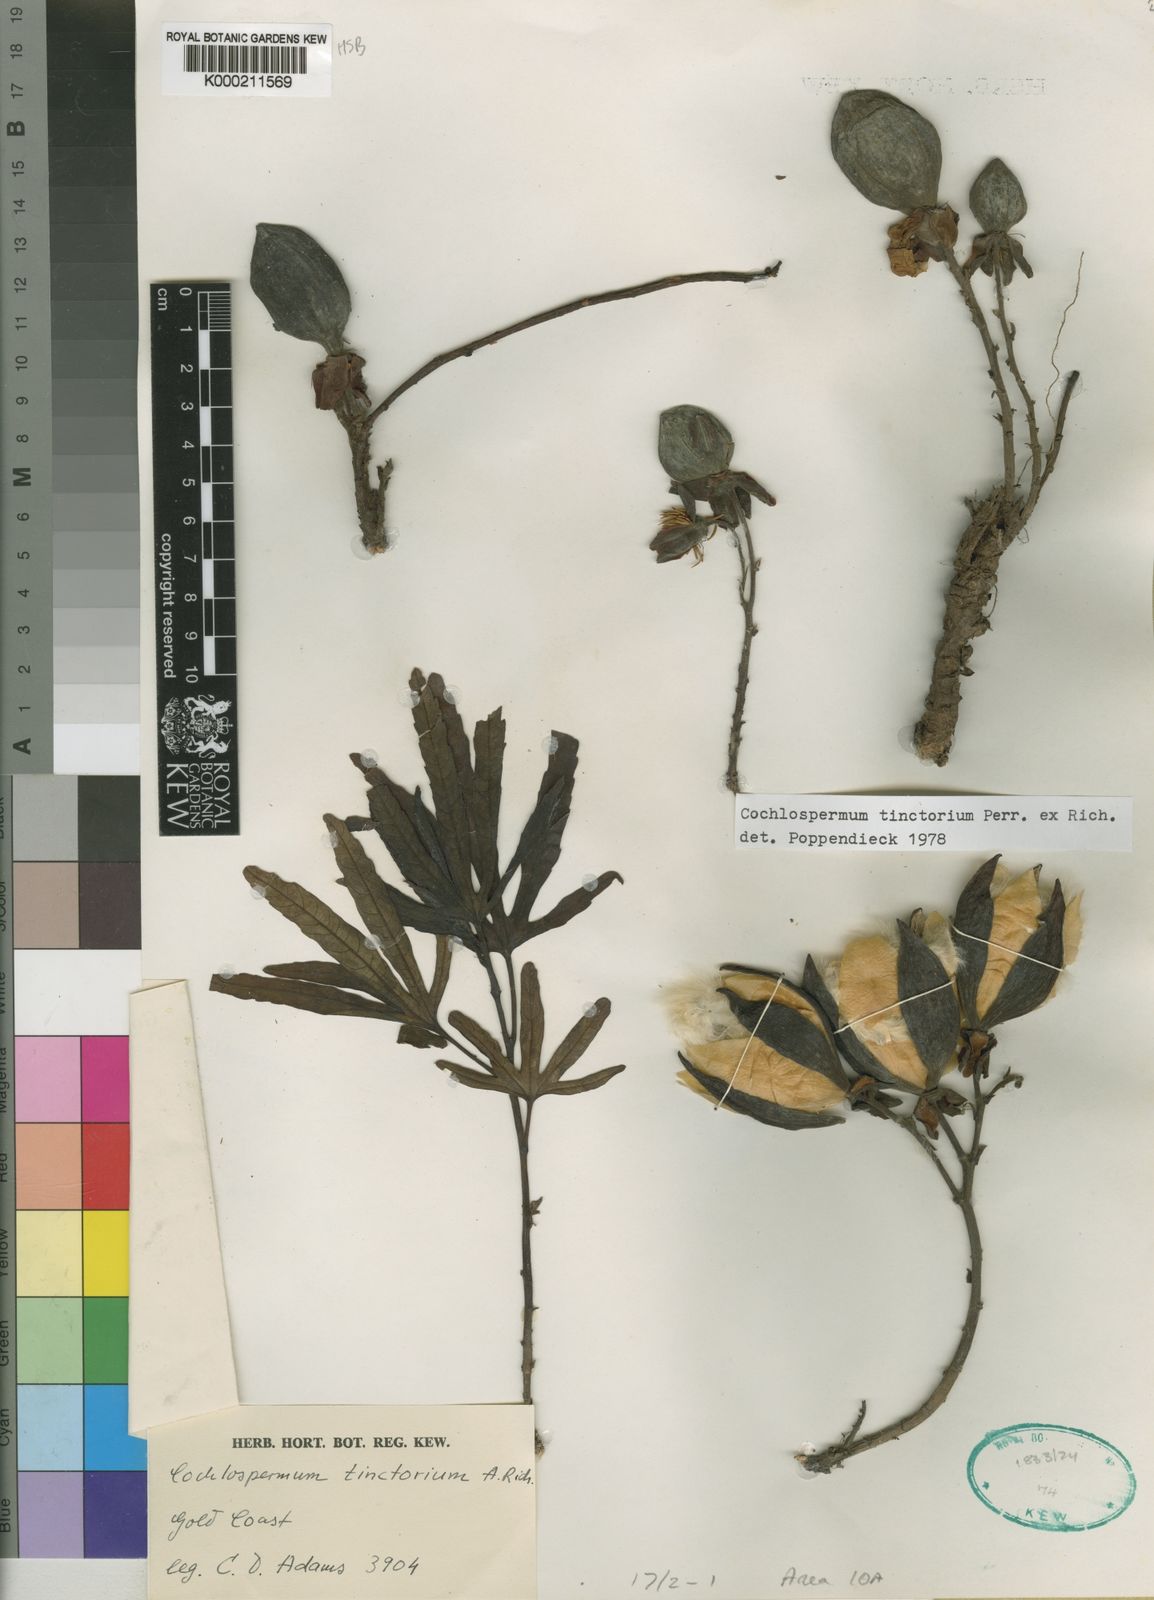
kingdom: Plantae
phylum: Tracheophyta
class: Magnoliopsida
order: Malvales
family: Cochlospermaceae
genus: Cochlospermum
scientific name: Cochlospermum tinctorium
